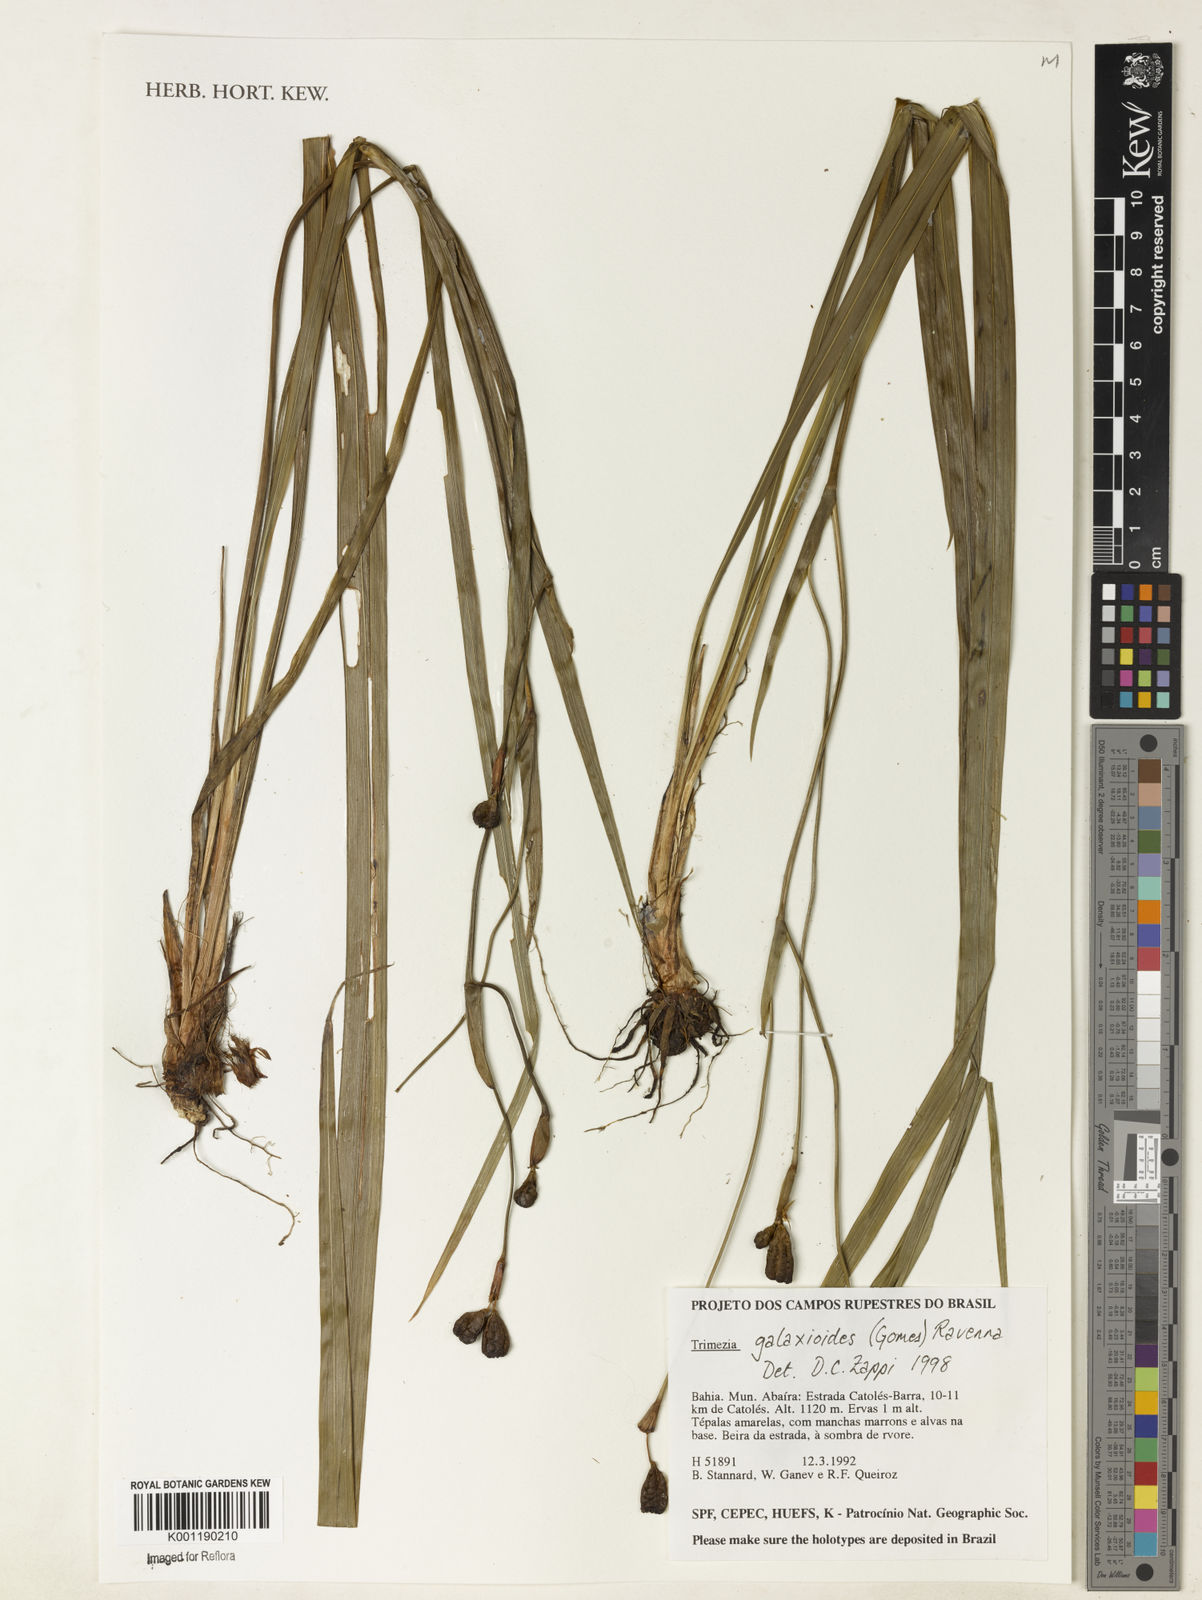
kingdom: Plantae
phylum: Tracheophyta
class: Liliopsida
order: Asparagales
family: Iridaceae
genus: Trimezia
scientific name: Trimezia martinicensis
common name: Martinique trimezia
